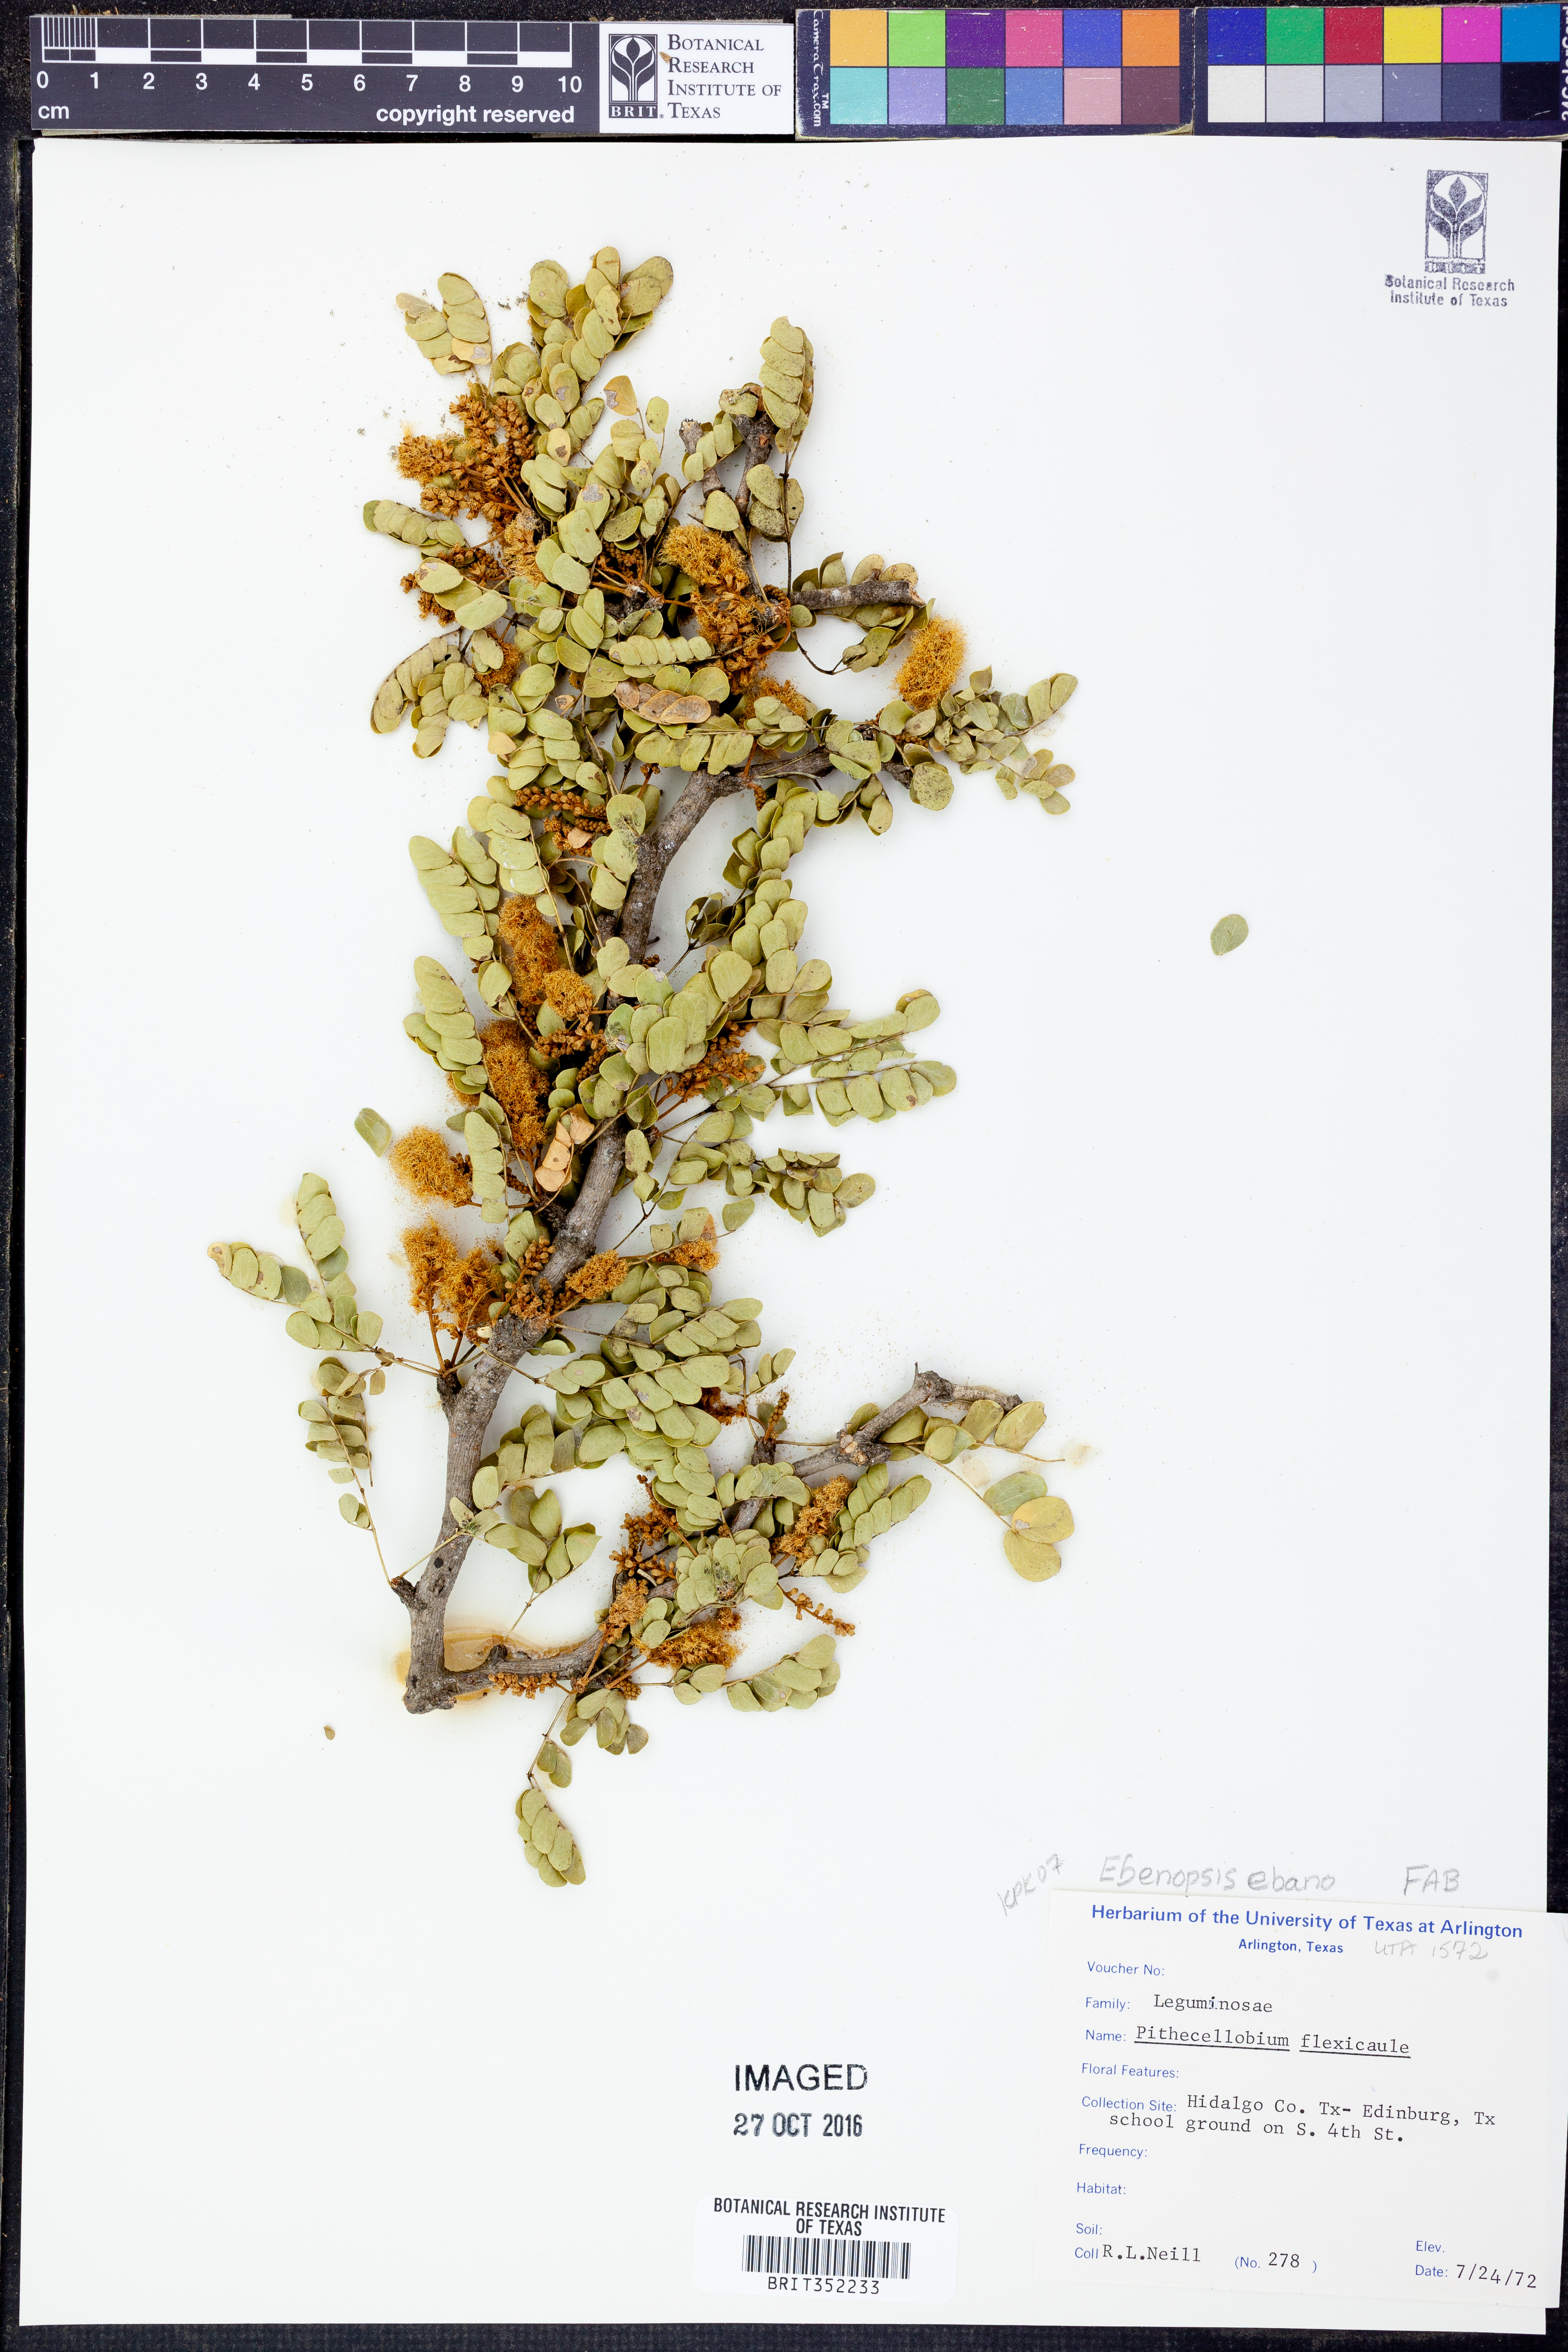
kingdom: Plantae
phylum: Tracheophyta
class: Magnoliopsida
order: Fabales
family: Fabaceae
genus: Ebenopsis
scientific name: Ebenopsis ebano
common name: Ebony blackbead
